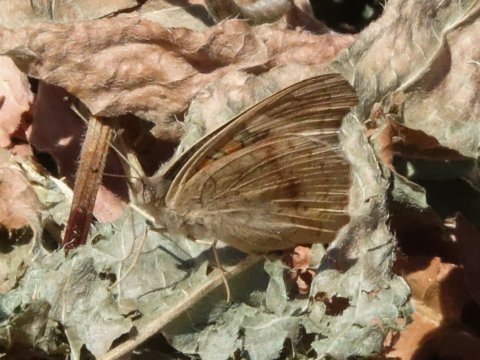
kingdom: Animalia
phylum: Arthropoda
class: Insecta
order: Lepidoptera
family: Nymphalidae
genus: Junonia
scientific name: Junonia coenia
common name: Common Buckeye
